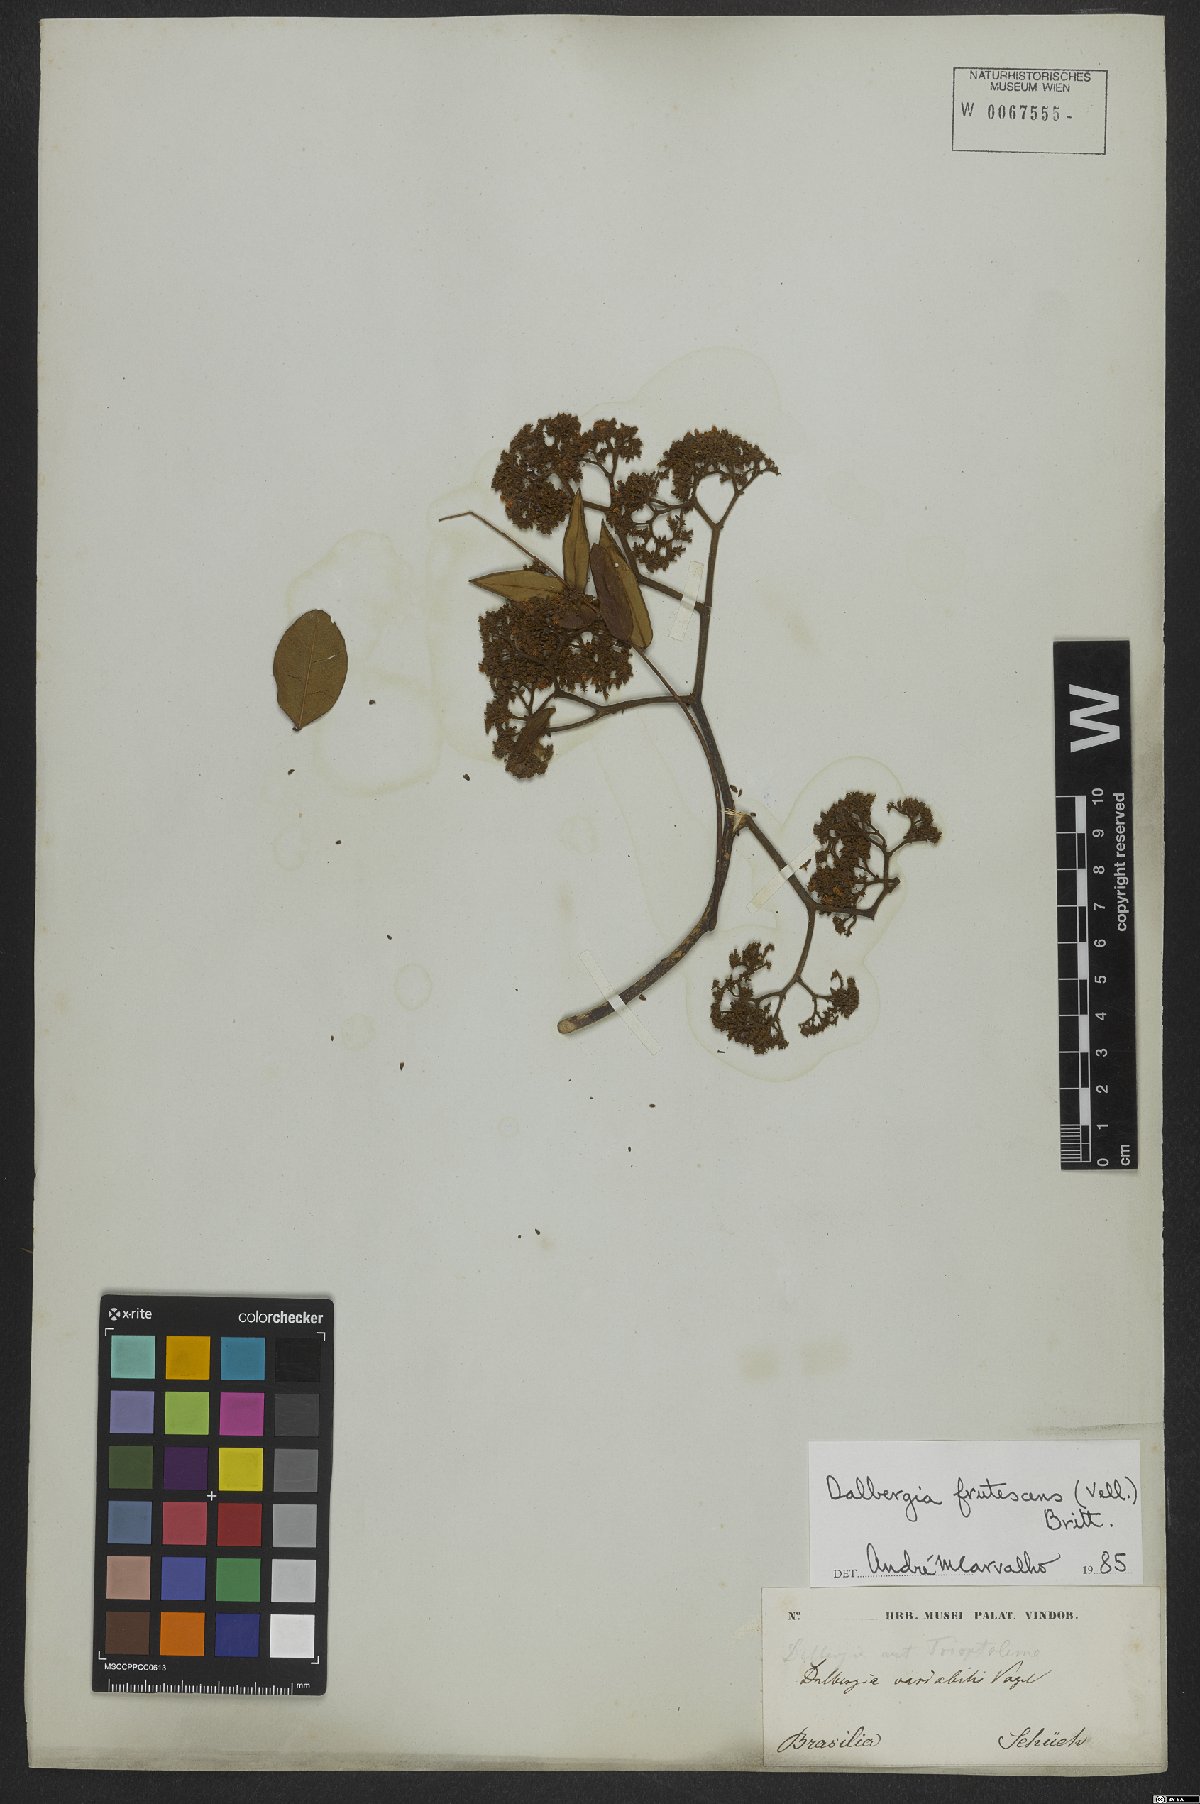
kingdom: Plantae
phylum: Tracheophyta
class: Magnoliopsida
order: Fabales
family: Fabaceae
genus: Dalbergia
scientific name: Dalbergia frutescens
